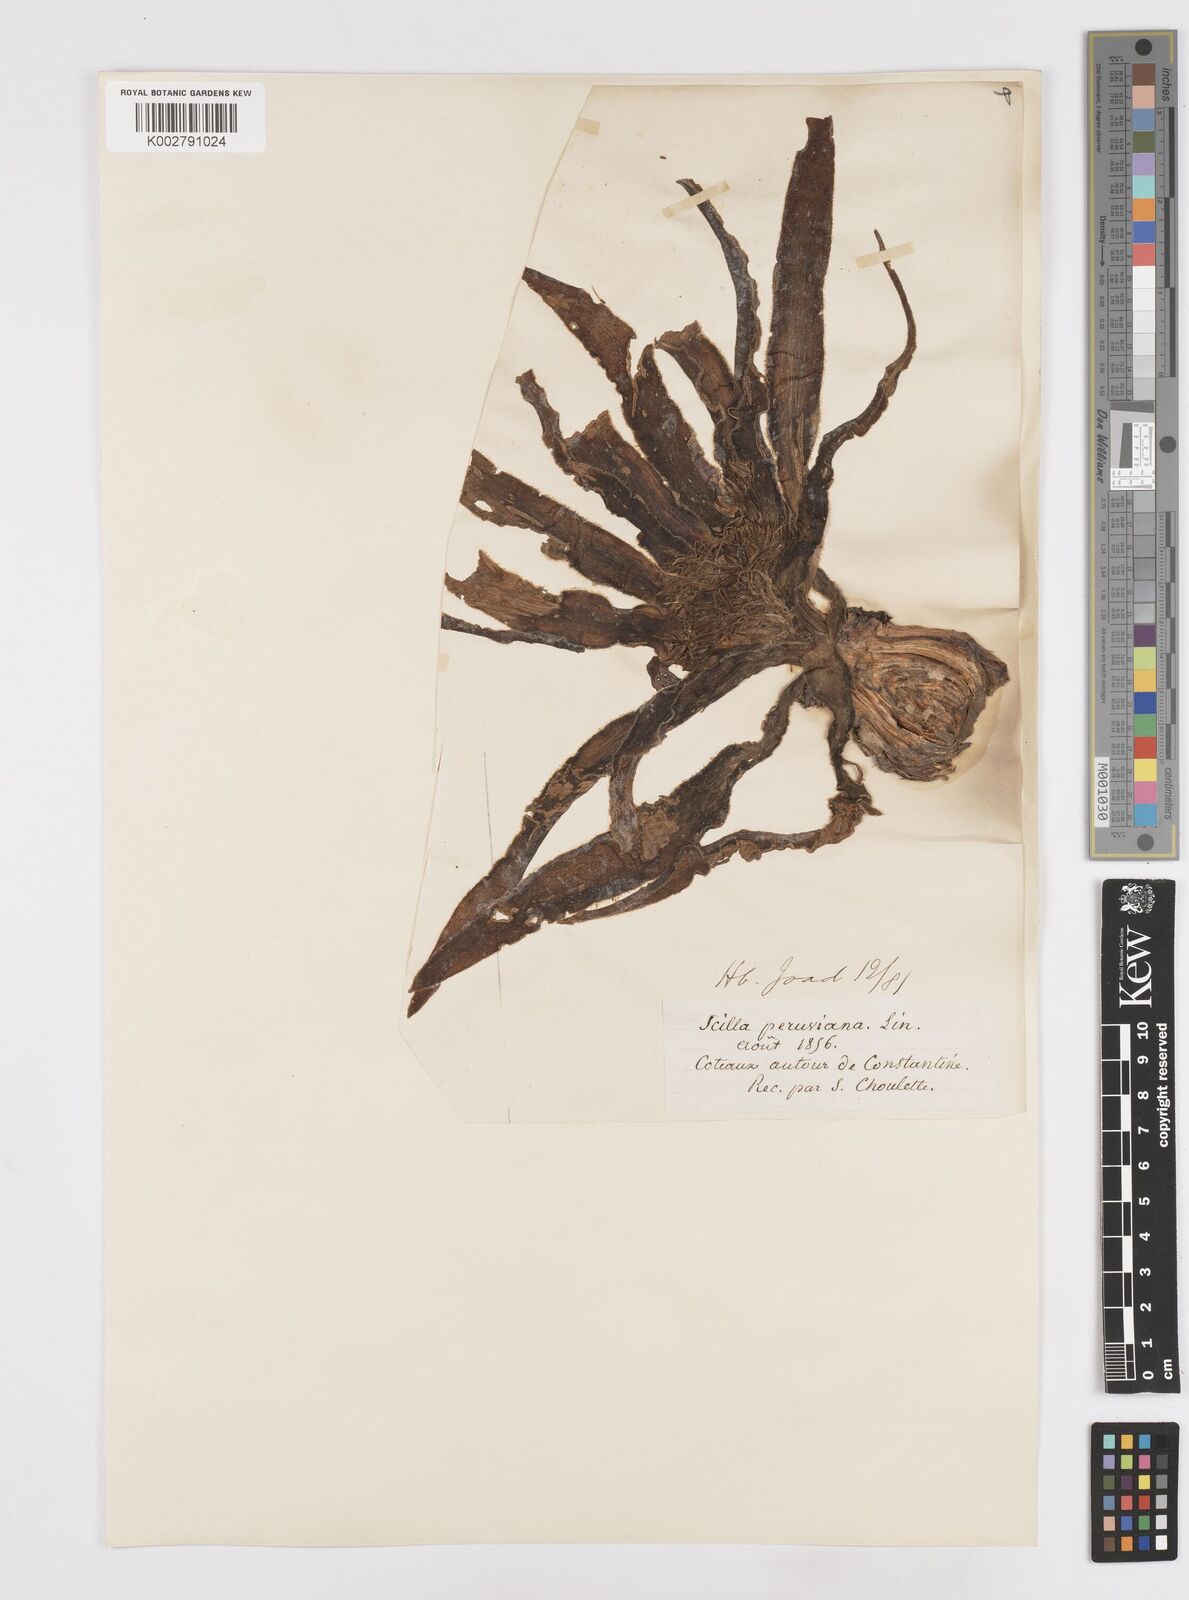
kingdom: Plantae
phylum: Tracheophyta
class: Liliopsida
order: Asparagales
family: Asparagaceae
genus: Scilla
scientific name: Scilla peruviana
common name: Portuguese squill
